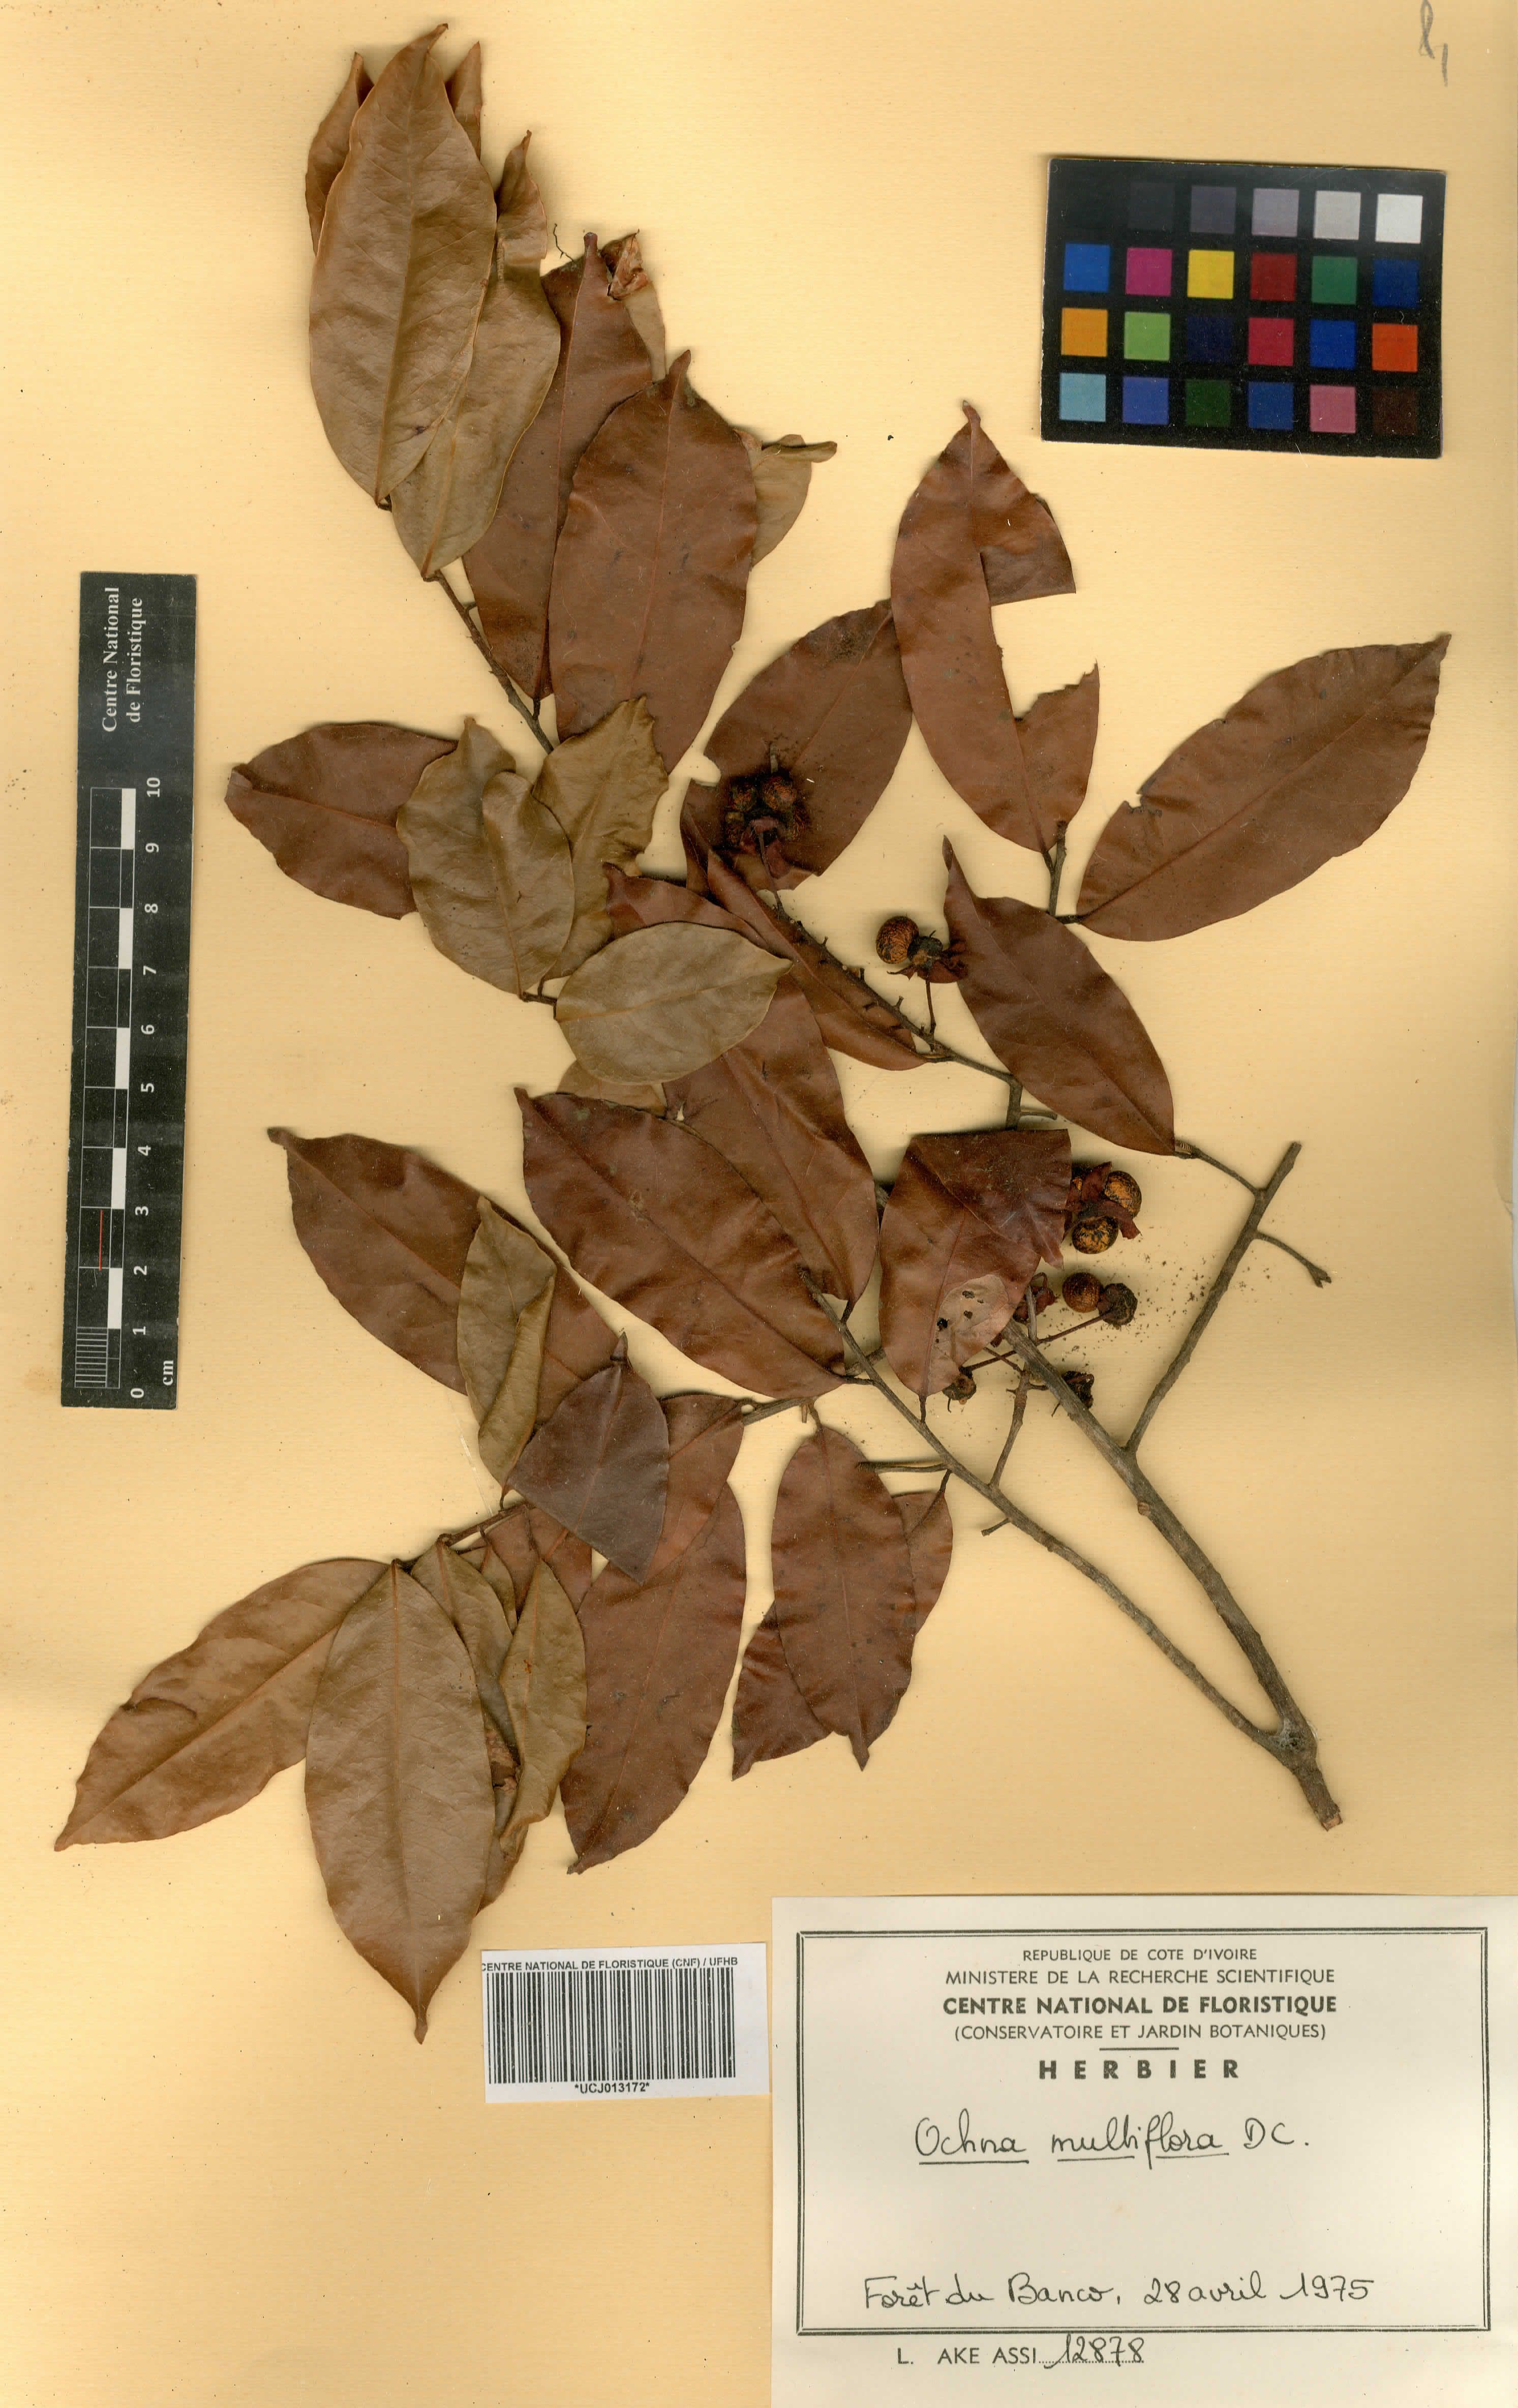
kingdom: Plantae
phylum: Tracheophyta
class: Magnoliopsida
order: Malpighiales
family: Ochnaceae
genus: Ochna
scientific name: Ochna multiflora
